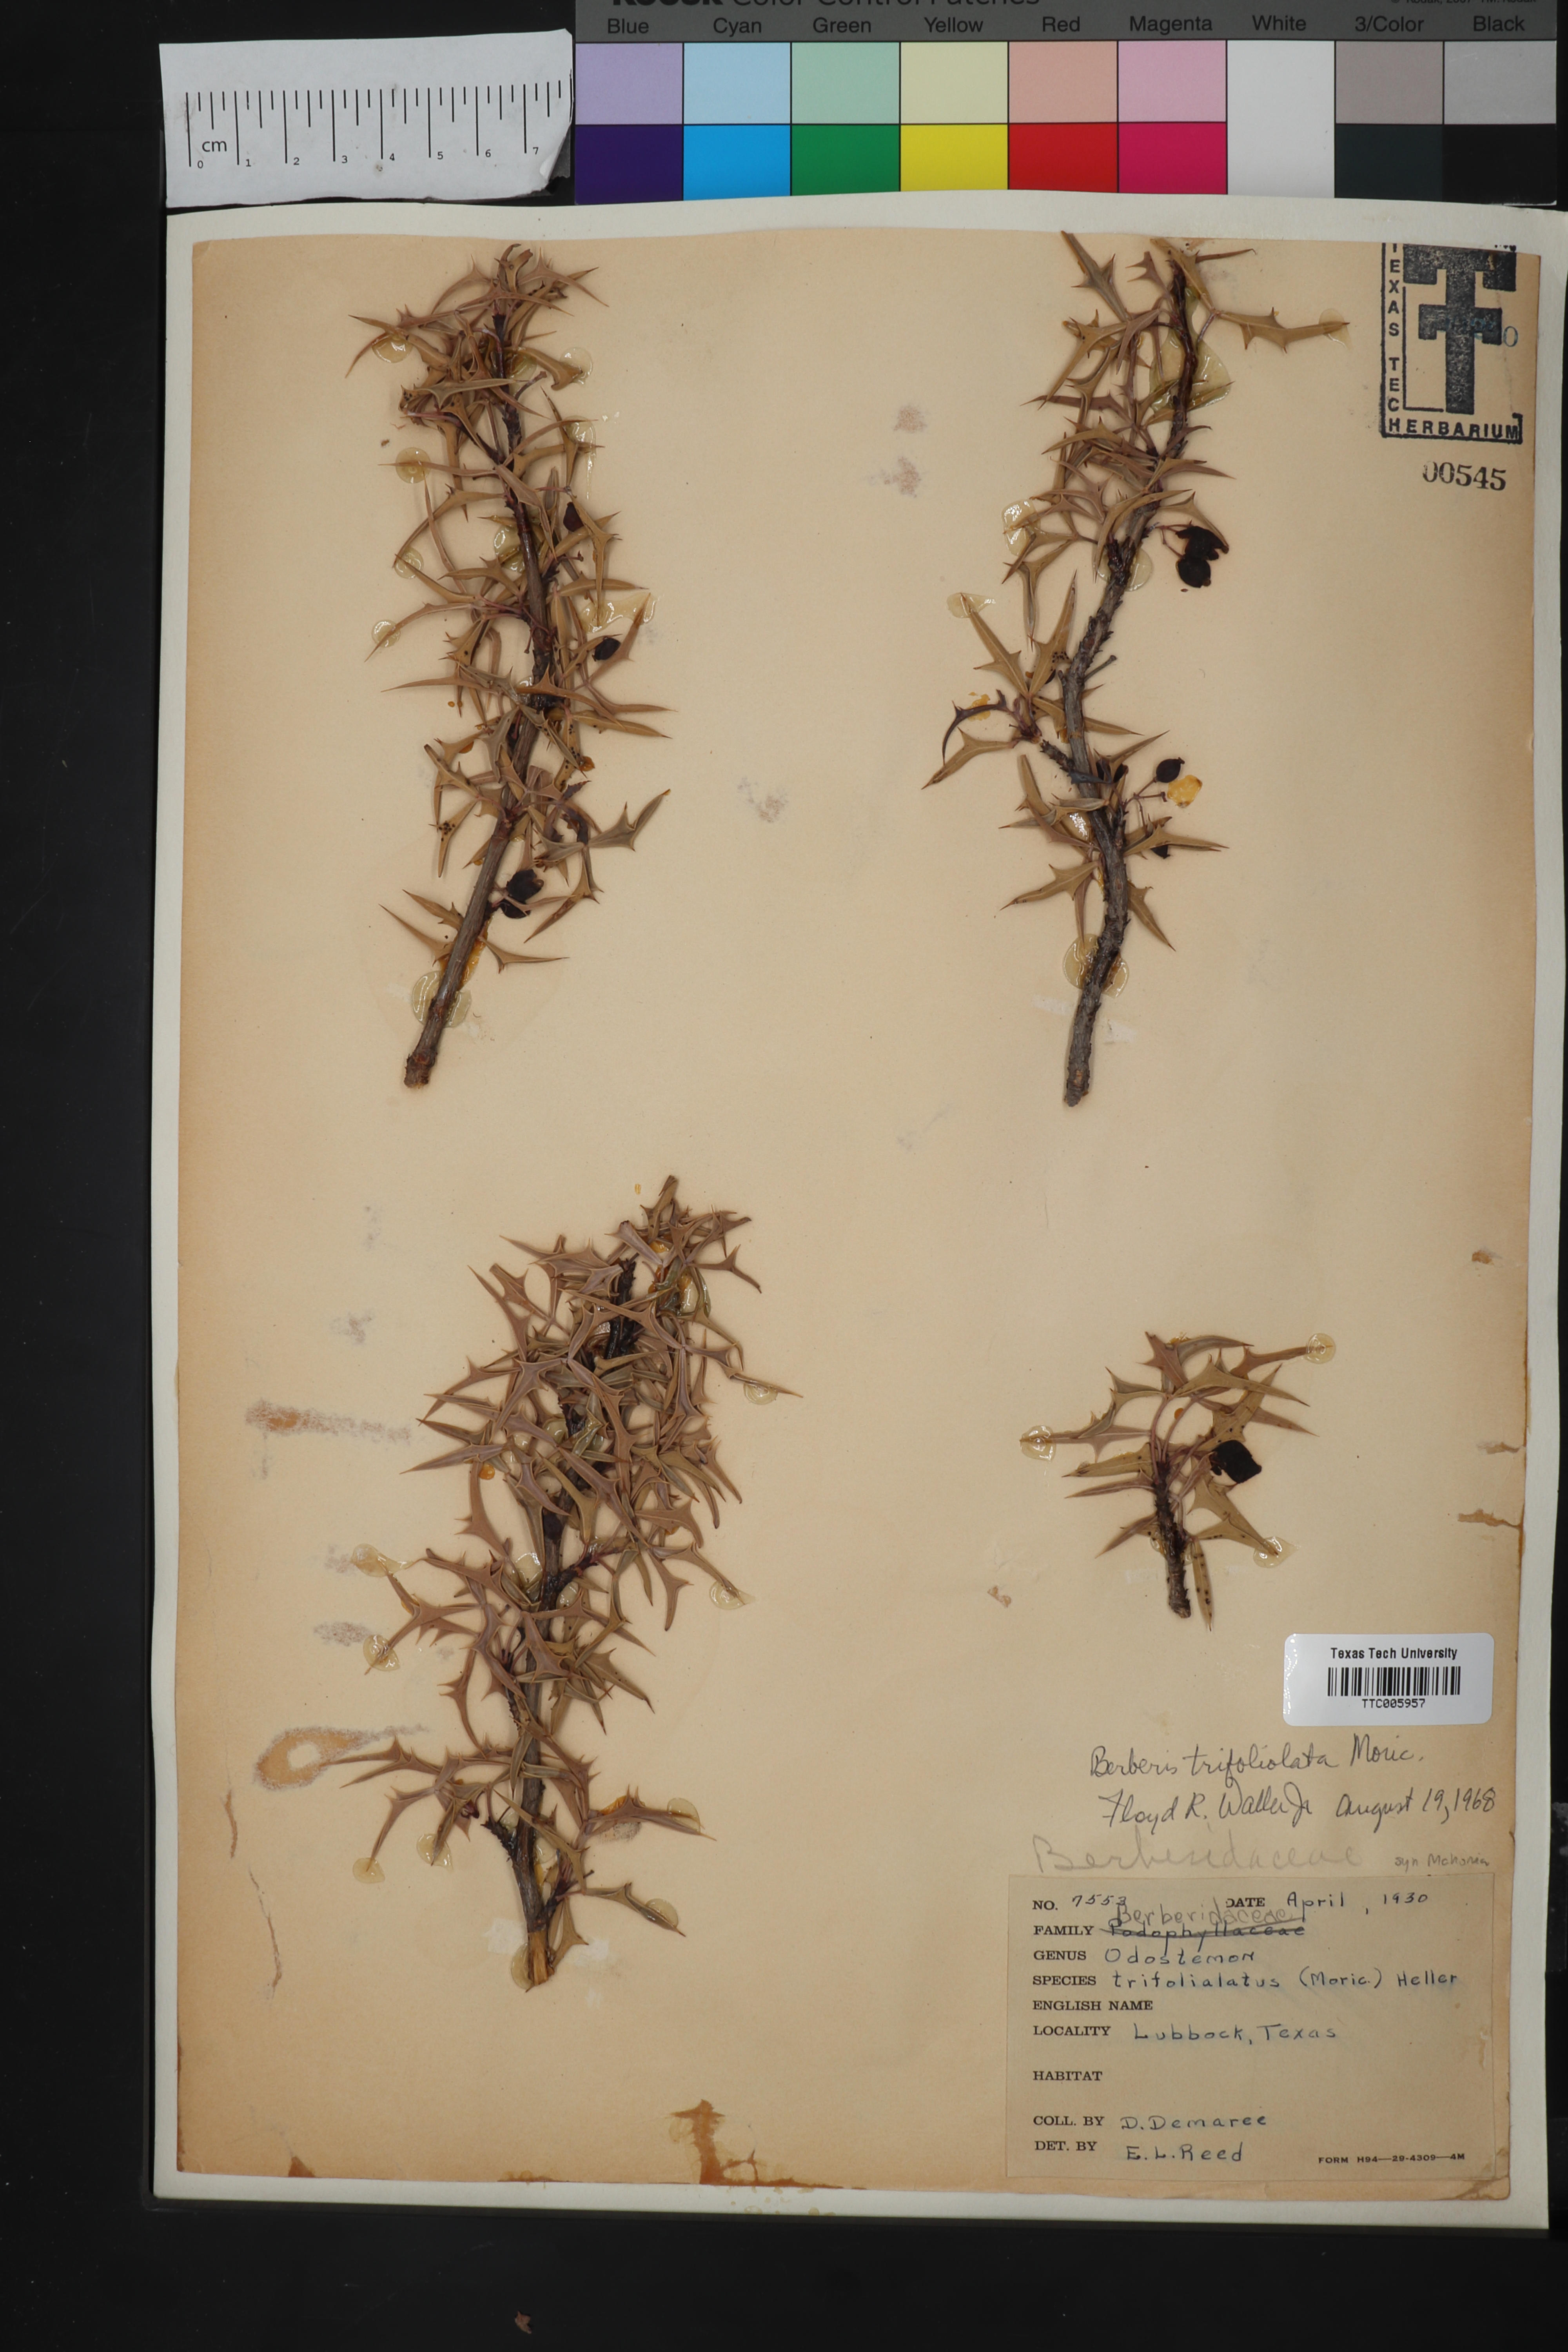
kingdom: Plantae
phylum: Tracheophyta
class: Magnoliopsida
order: Ranunculales
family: Berberidaceae
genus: Alloberberis
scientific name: Alloberberis trifoliolata
